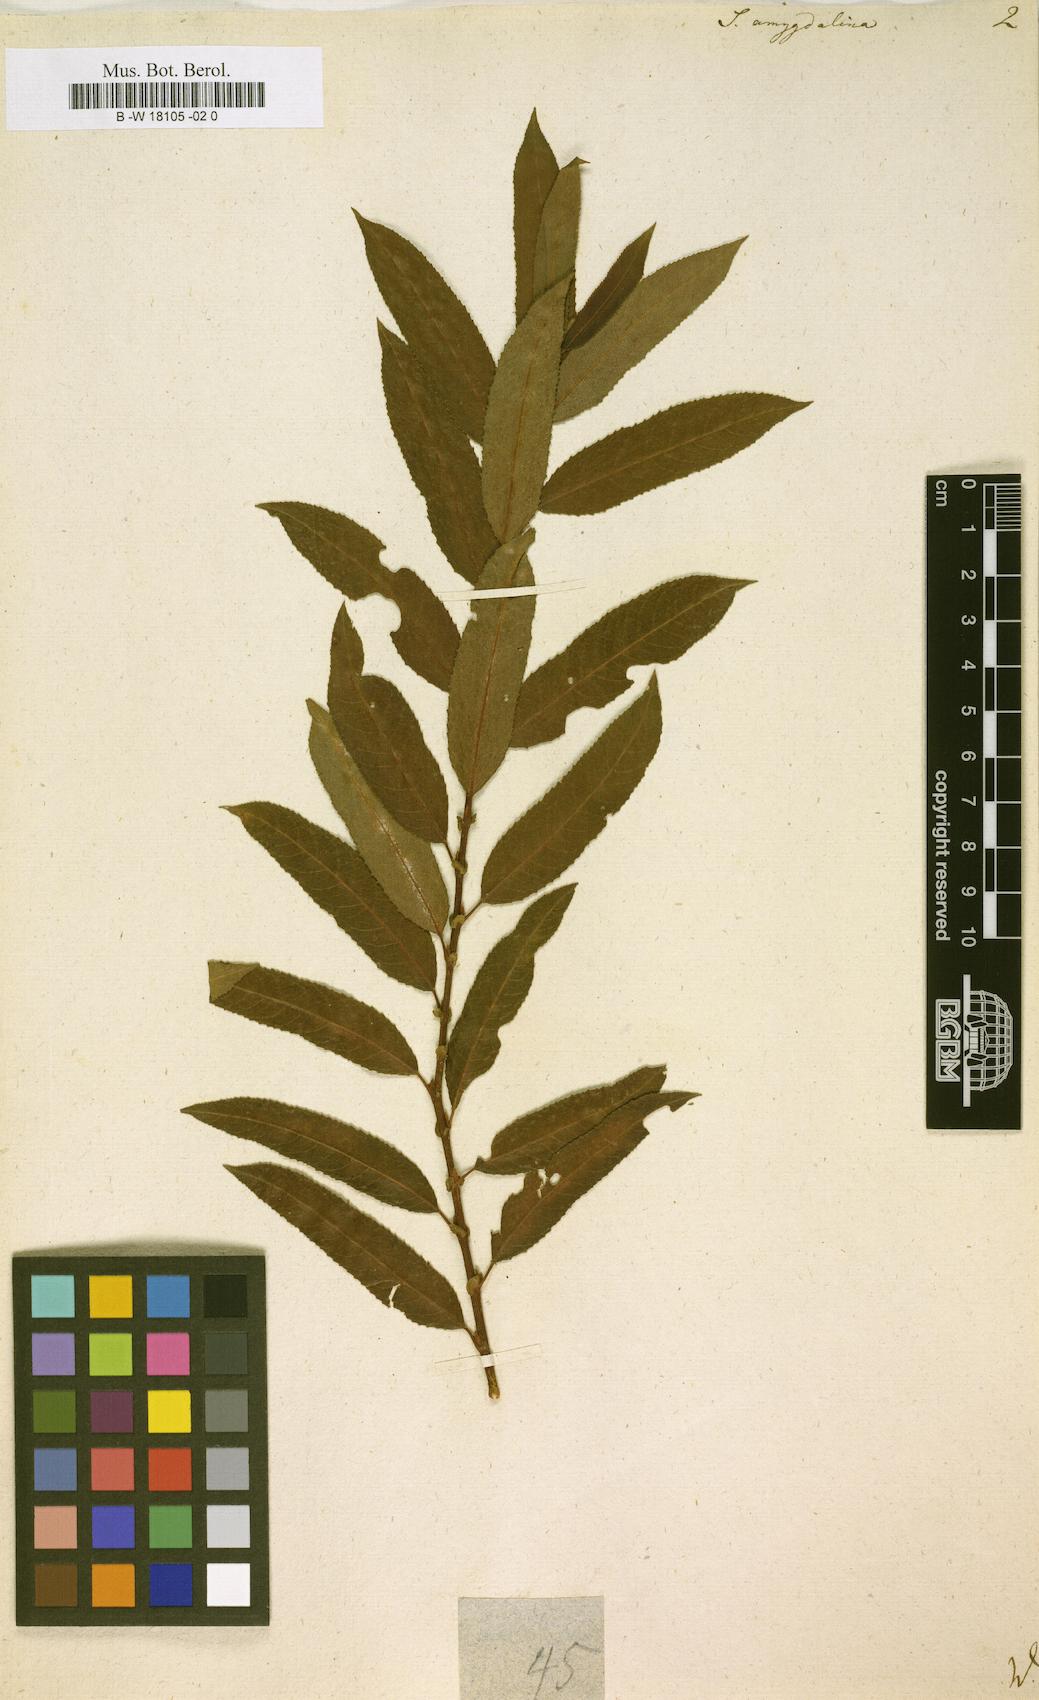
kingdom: Plantae
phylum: Tracheophyta
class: Magnoliopsida
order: Malpighiales
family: Salicaceae
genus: Salix
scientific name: Salix
